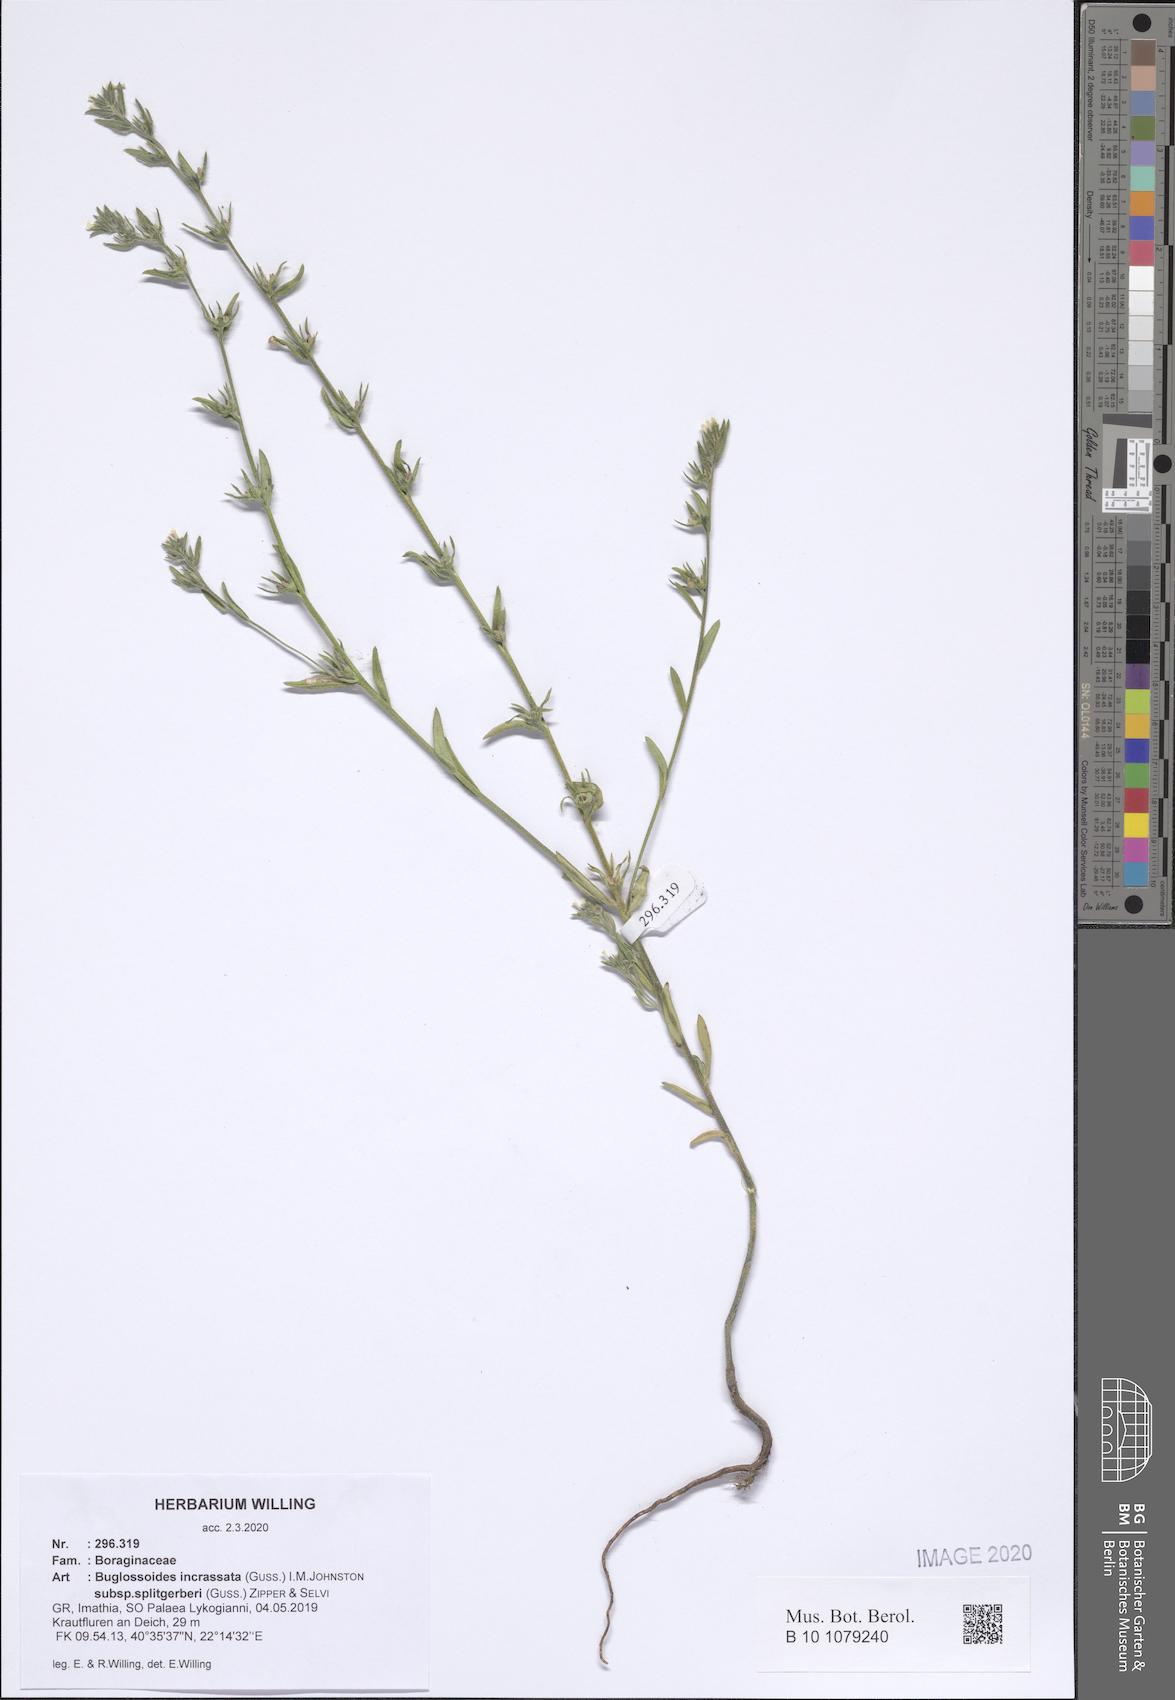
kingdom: Plantae
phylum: Tracheophyta
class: Magnoliopsida
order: Boraginales
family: Boraginaceae
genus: Buglossoides
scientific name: Buglossoides incrassata
